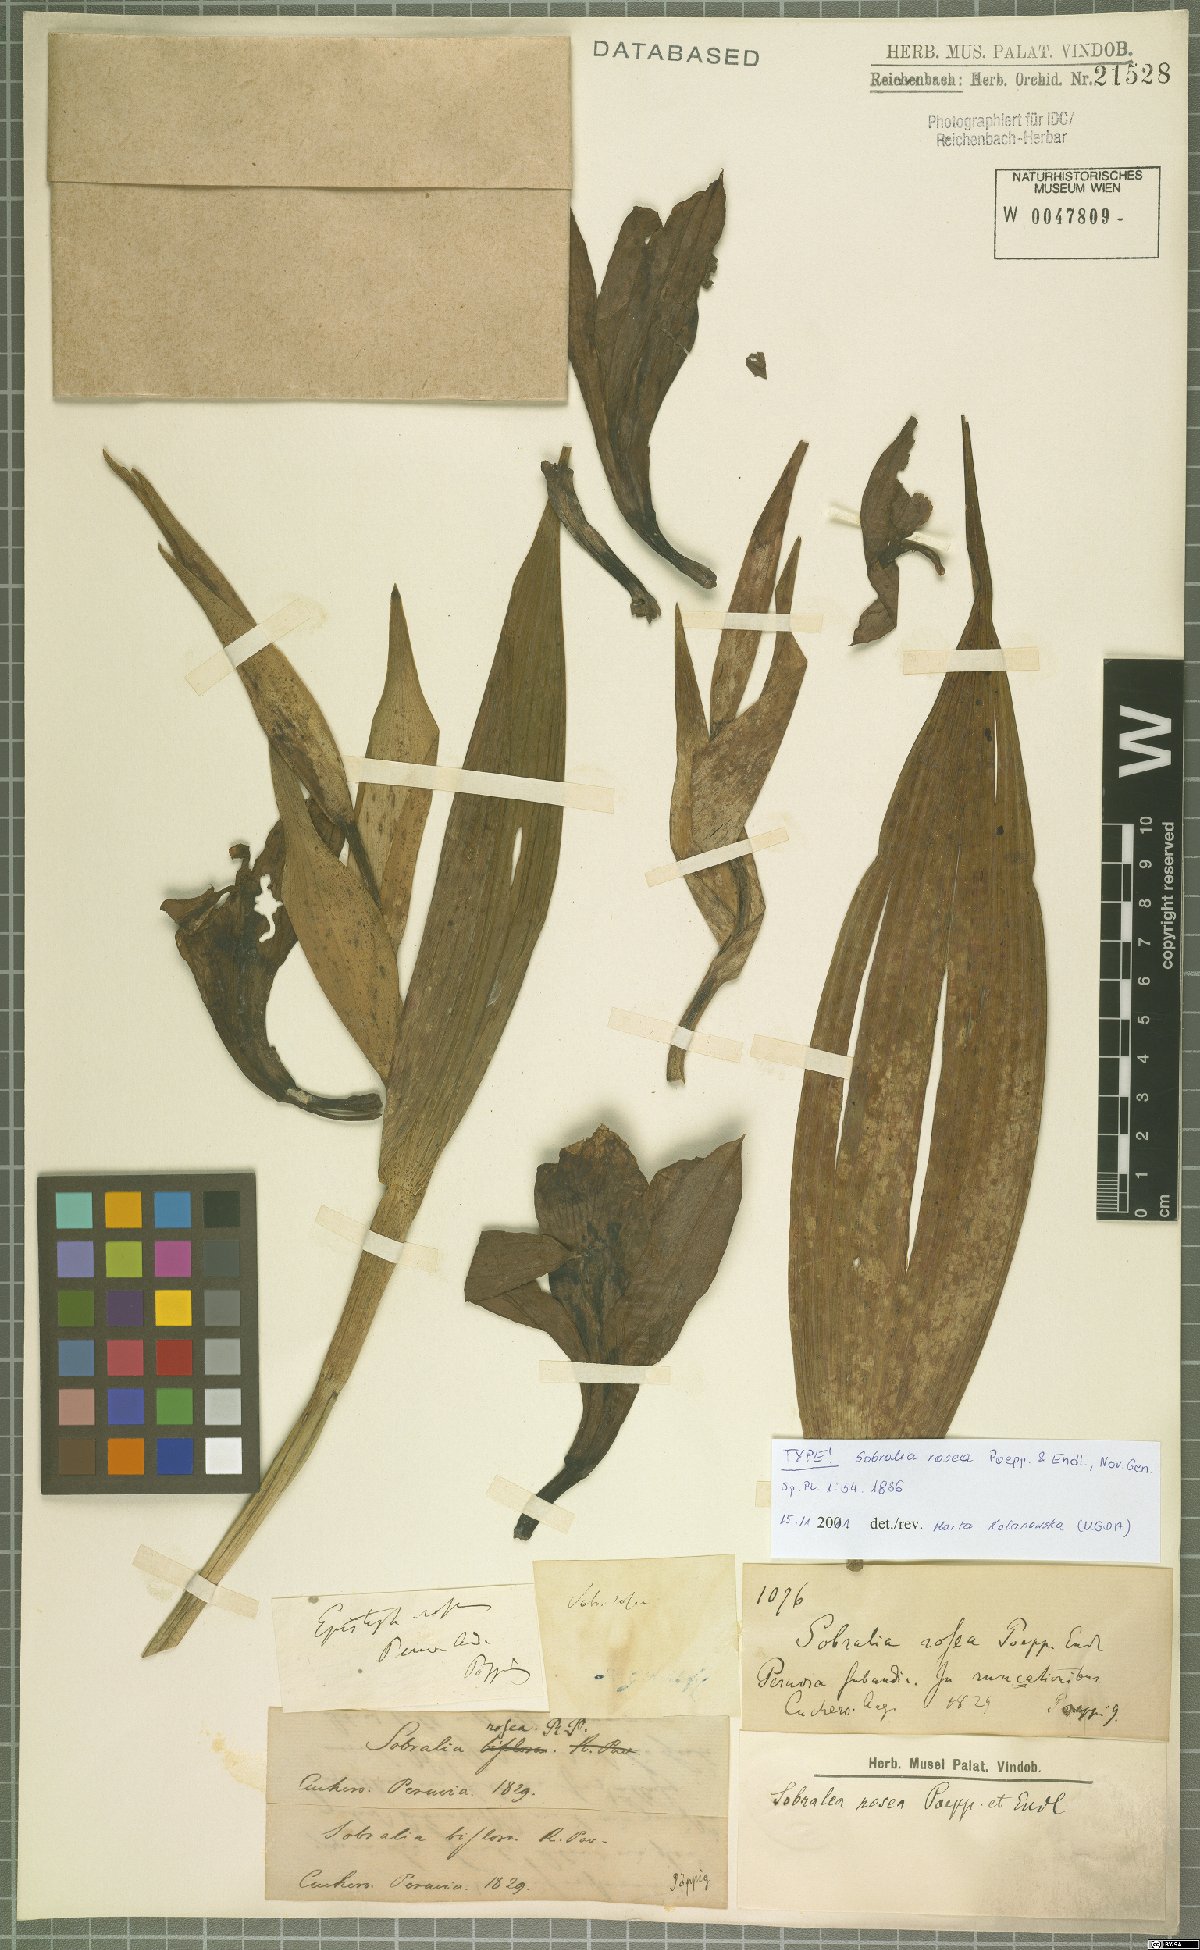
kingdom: Plantae
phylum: Tracheophyta
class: Liliopsida
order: Asparagales
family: Orchidaceae
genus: Sobralia
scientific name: Sobralia rosea
